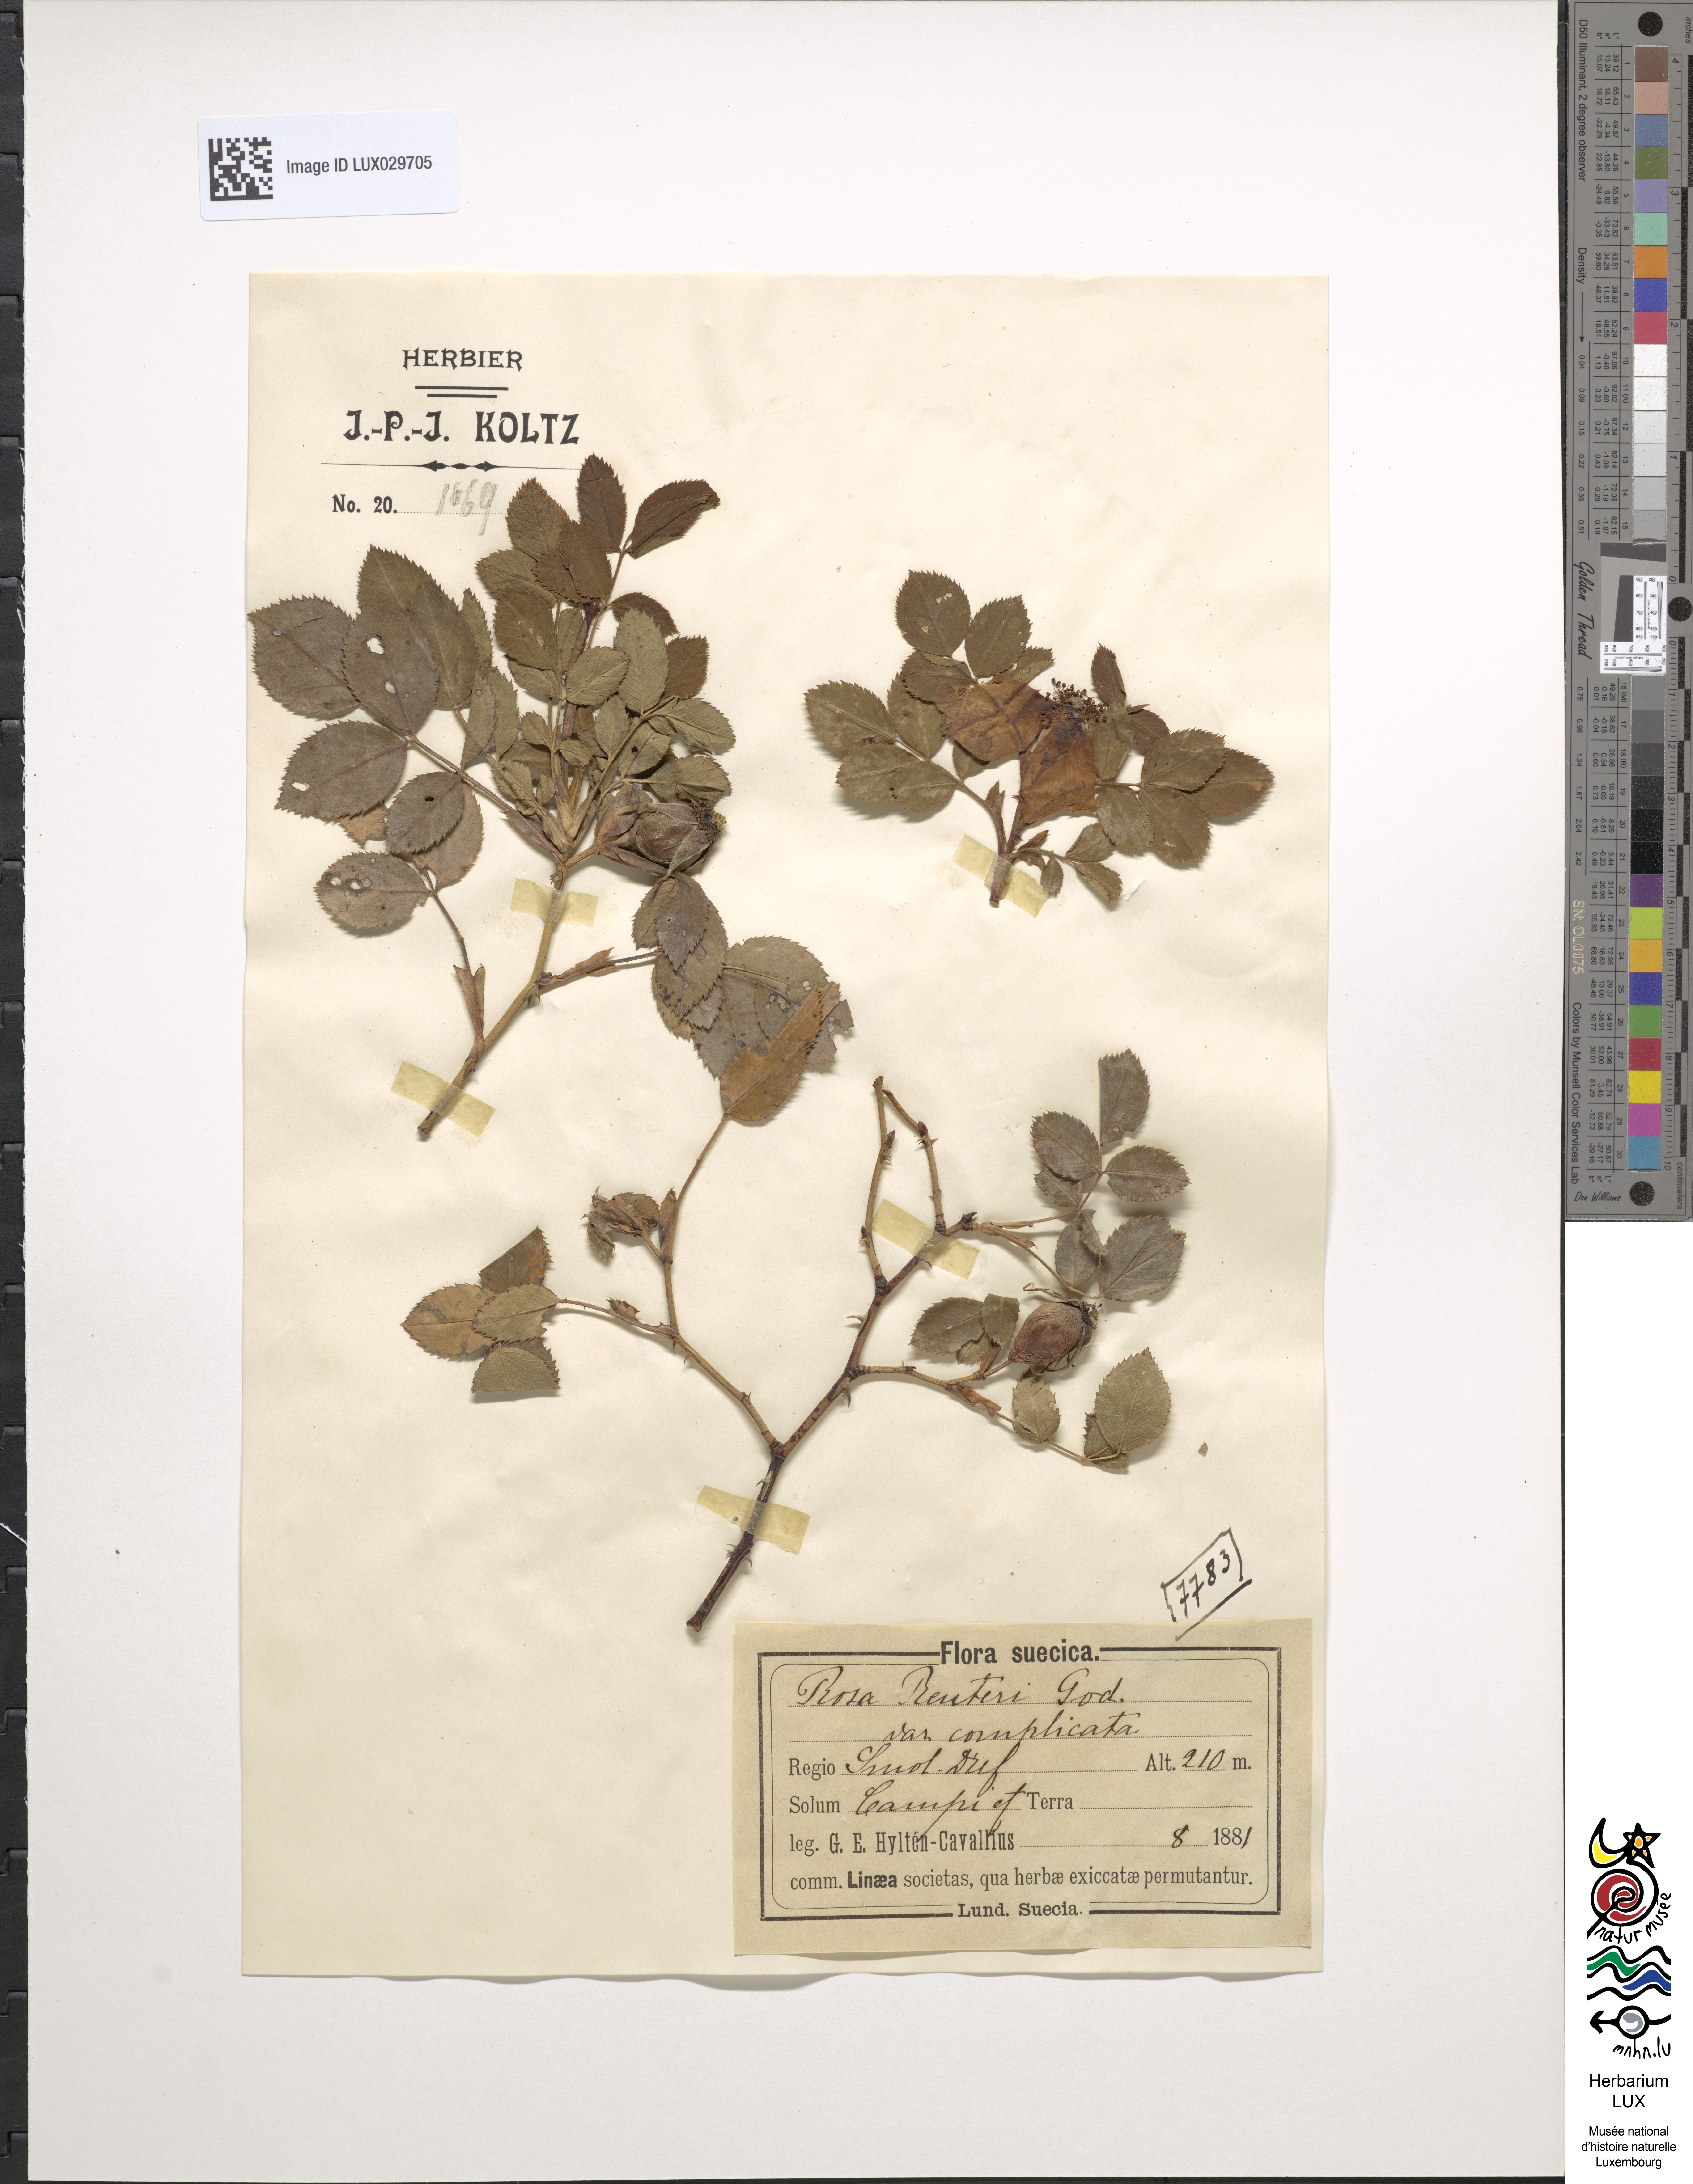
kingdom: Plantae
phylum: Tracheophyta
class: Magnoliopsida
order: Rosales
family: Rosaceae
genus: Rosa
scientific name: Rosa caesia
